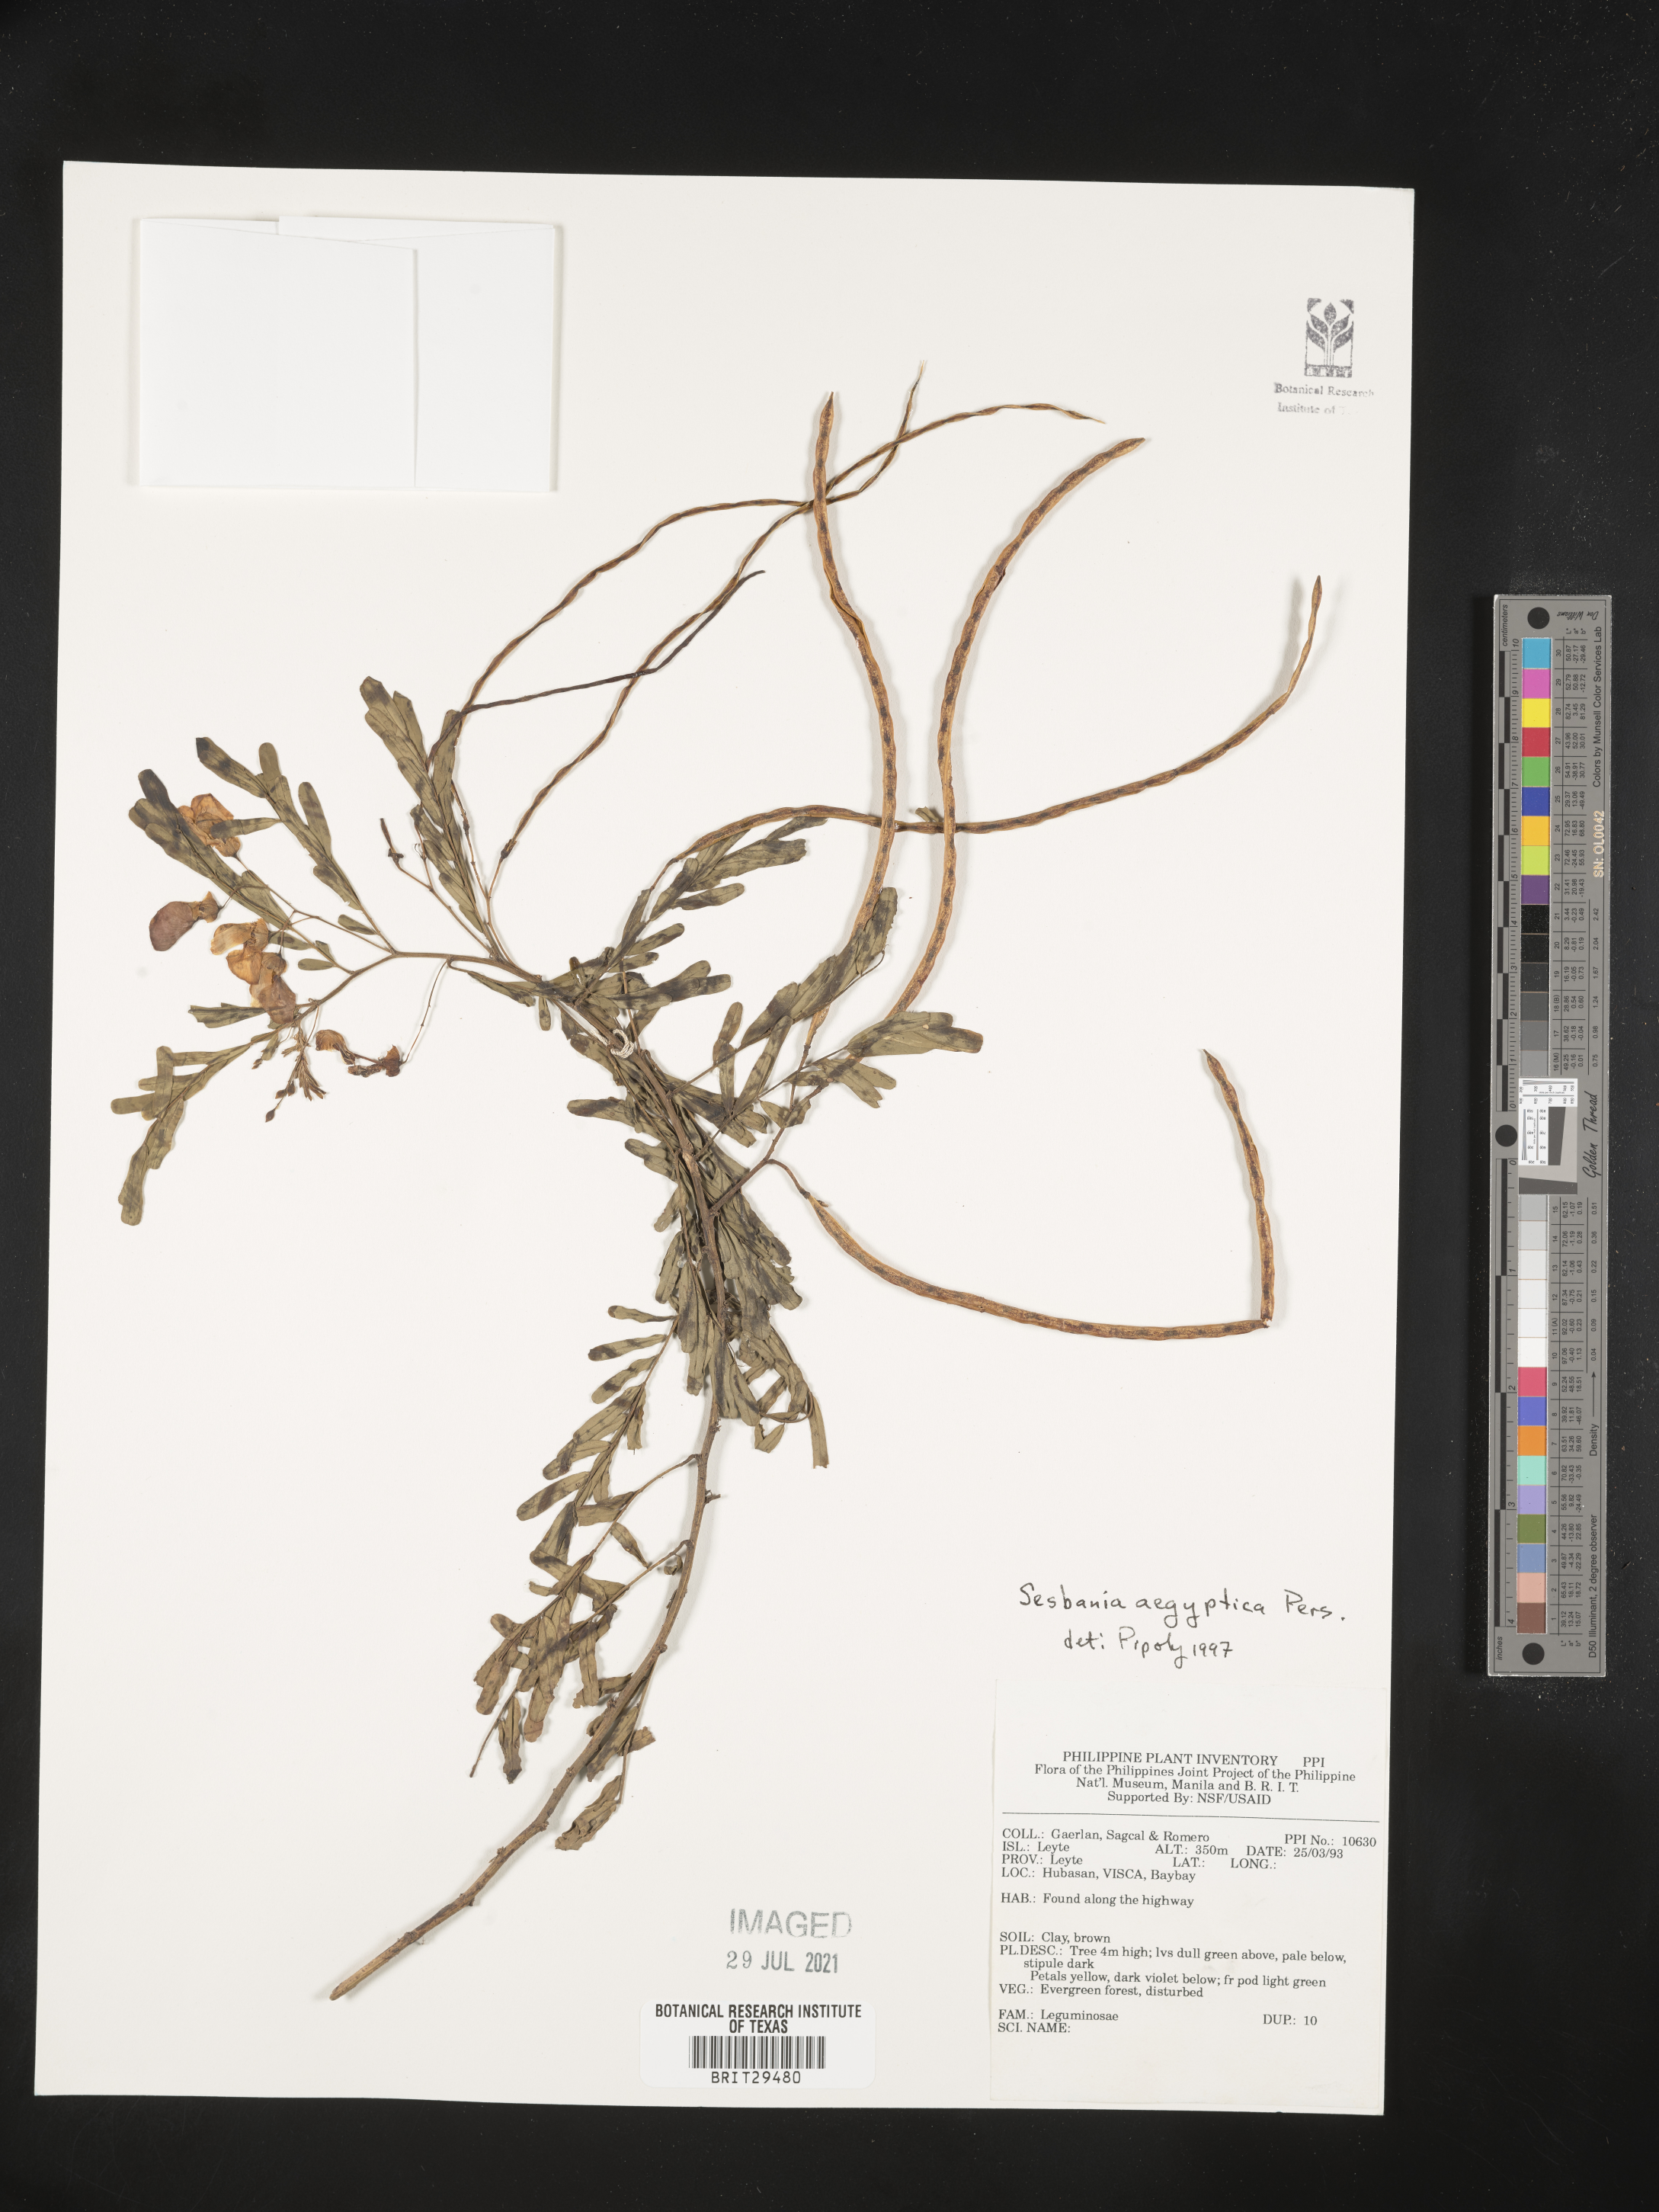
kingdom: Plantae
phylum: Tracheophyta
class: Magnoliopsida
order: Fabales
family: Fabaceae
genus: Sesbania
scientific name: Sesbania sesban
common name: Egyptian sesban
